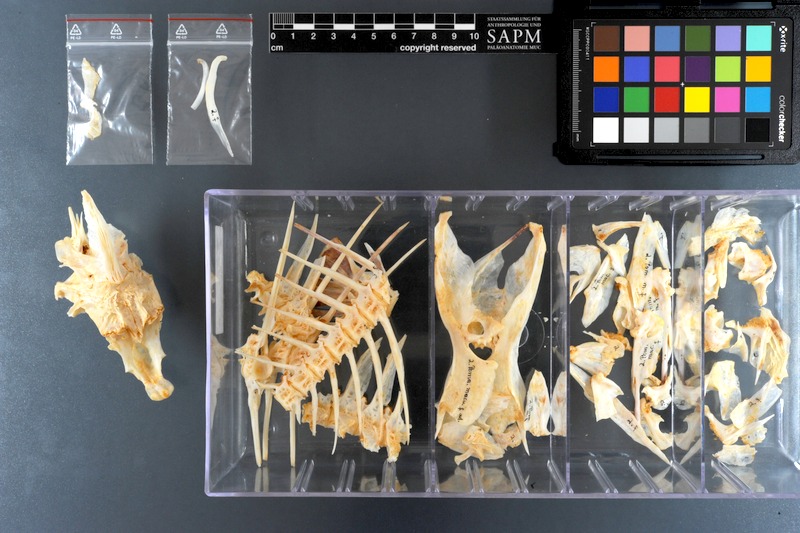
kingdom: Animalia
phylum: Chordata
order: Perciformes
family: Pomacanthidae
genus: Pomacanthus
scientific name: Pomacanthus maculosus
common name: Yellowbar angelfish
